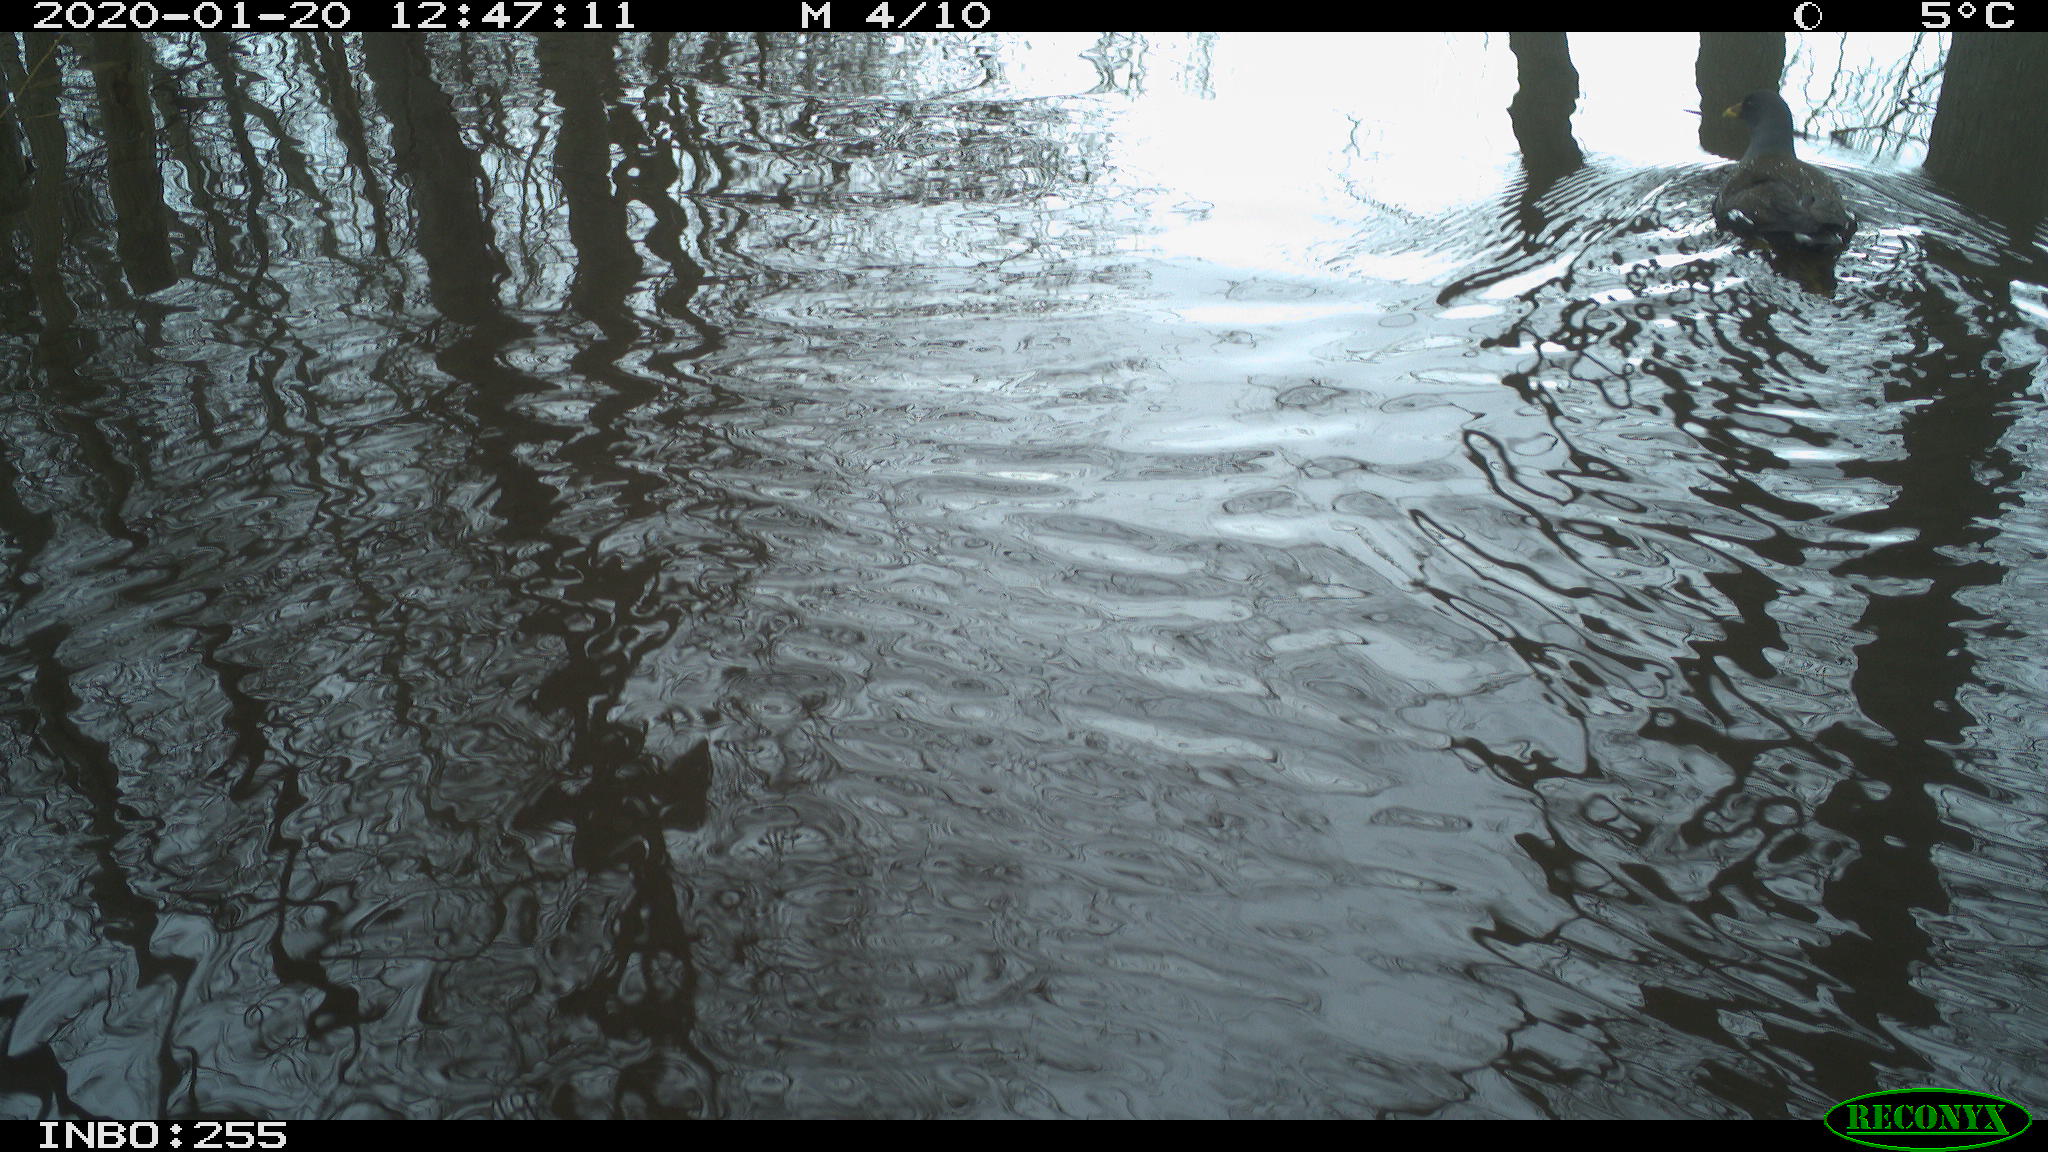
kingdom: Animalia
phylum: Chordata
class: Aves
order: Gruiformes
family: Rallidae
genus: Gallinula
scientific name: Gallinula chloropus
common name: Common moorhen
